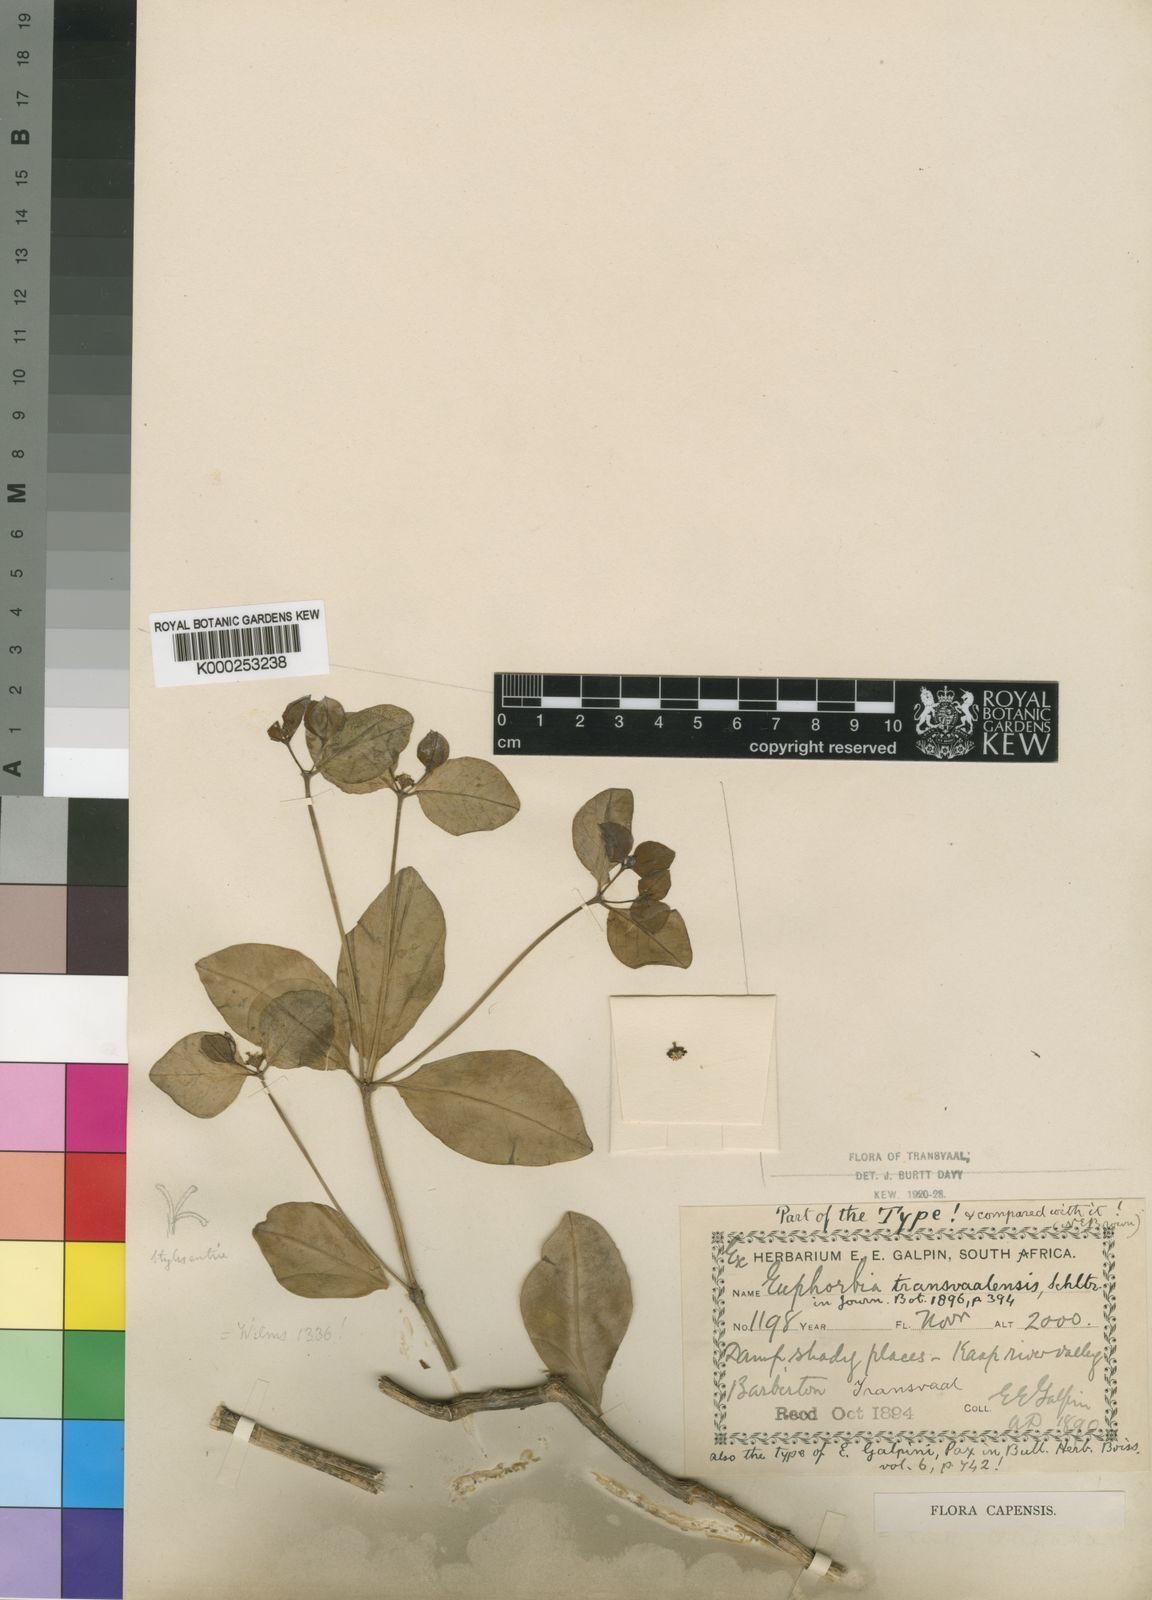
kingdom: Plantae
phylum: Tracheophyta
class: Magnoliopsida
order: Malpighiales
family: Euphorbiaceae
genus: Euphorbia
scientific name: Euphorbia transvaalensis
